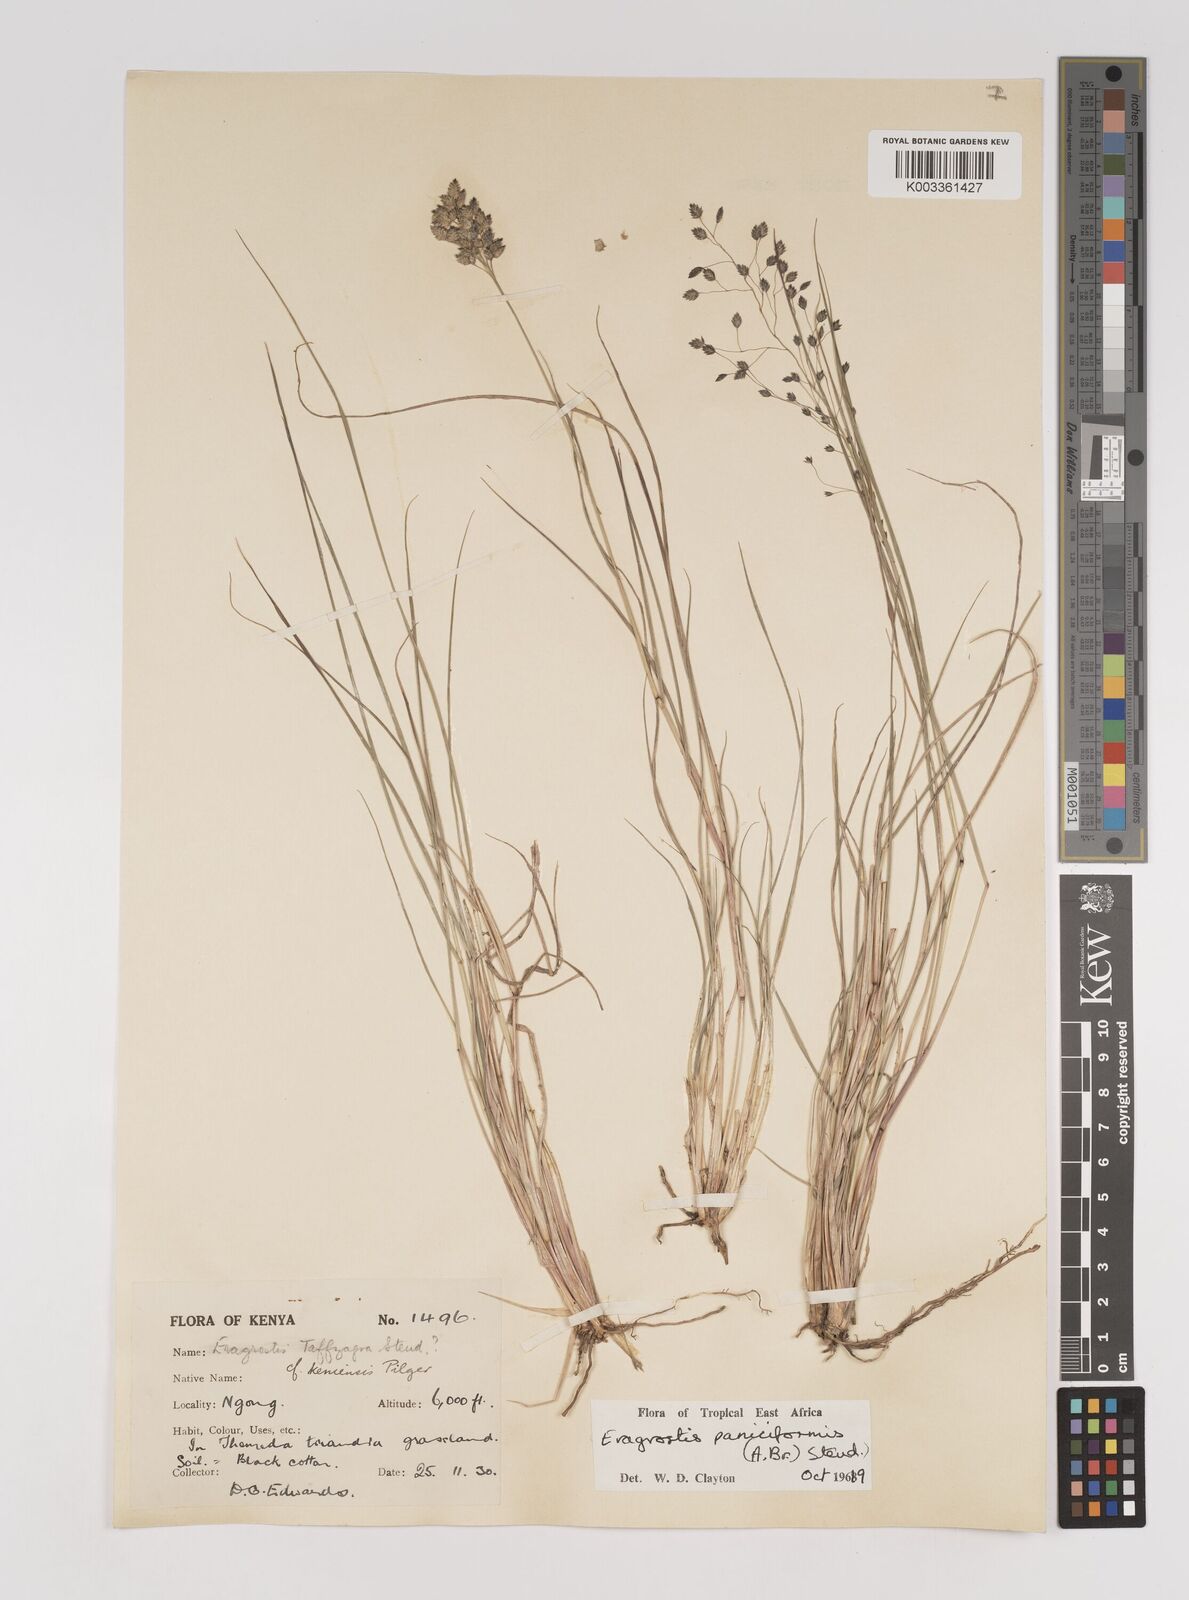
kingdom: Plantae
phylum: Tracheophyta
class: Liliopsida
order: Poales
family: Poaceae
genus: Eragrostis
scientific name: Eragrostis paniciformis
